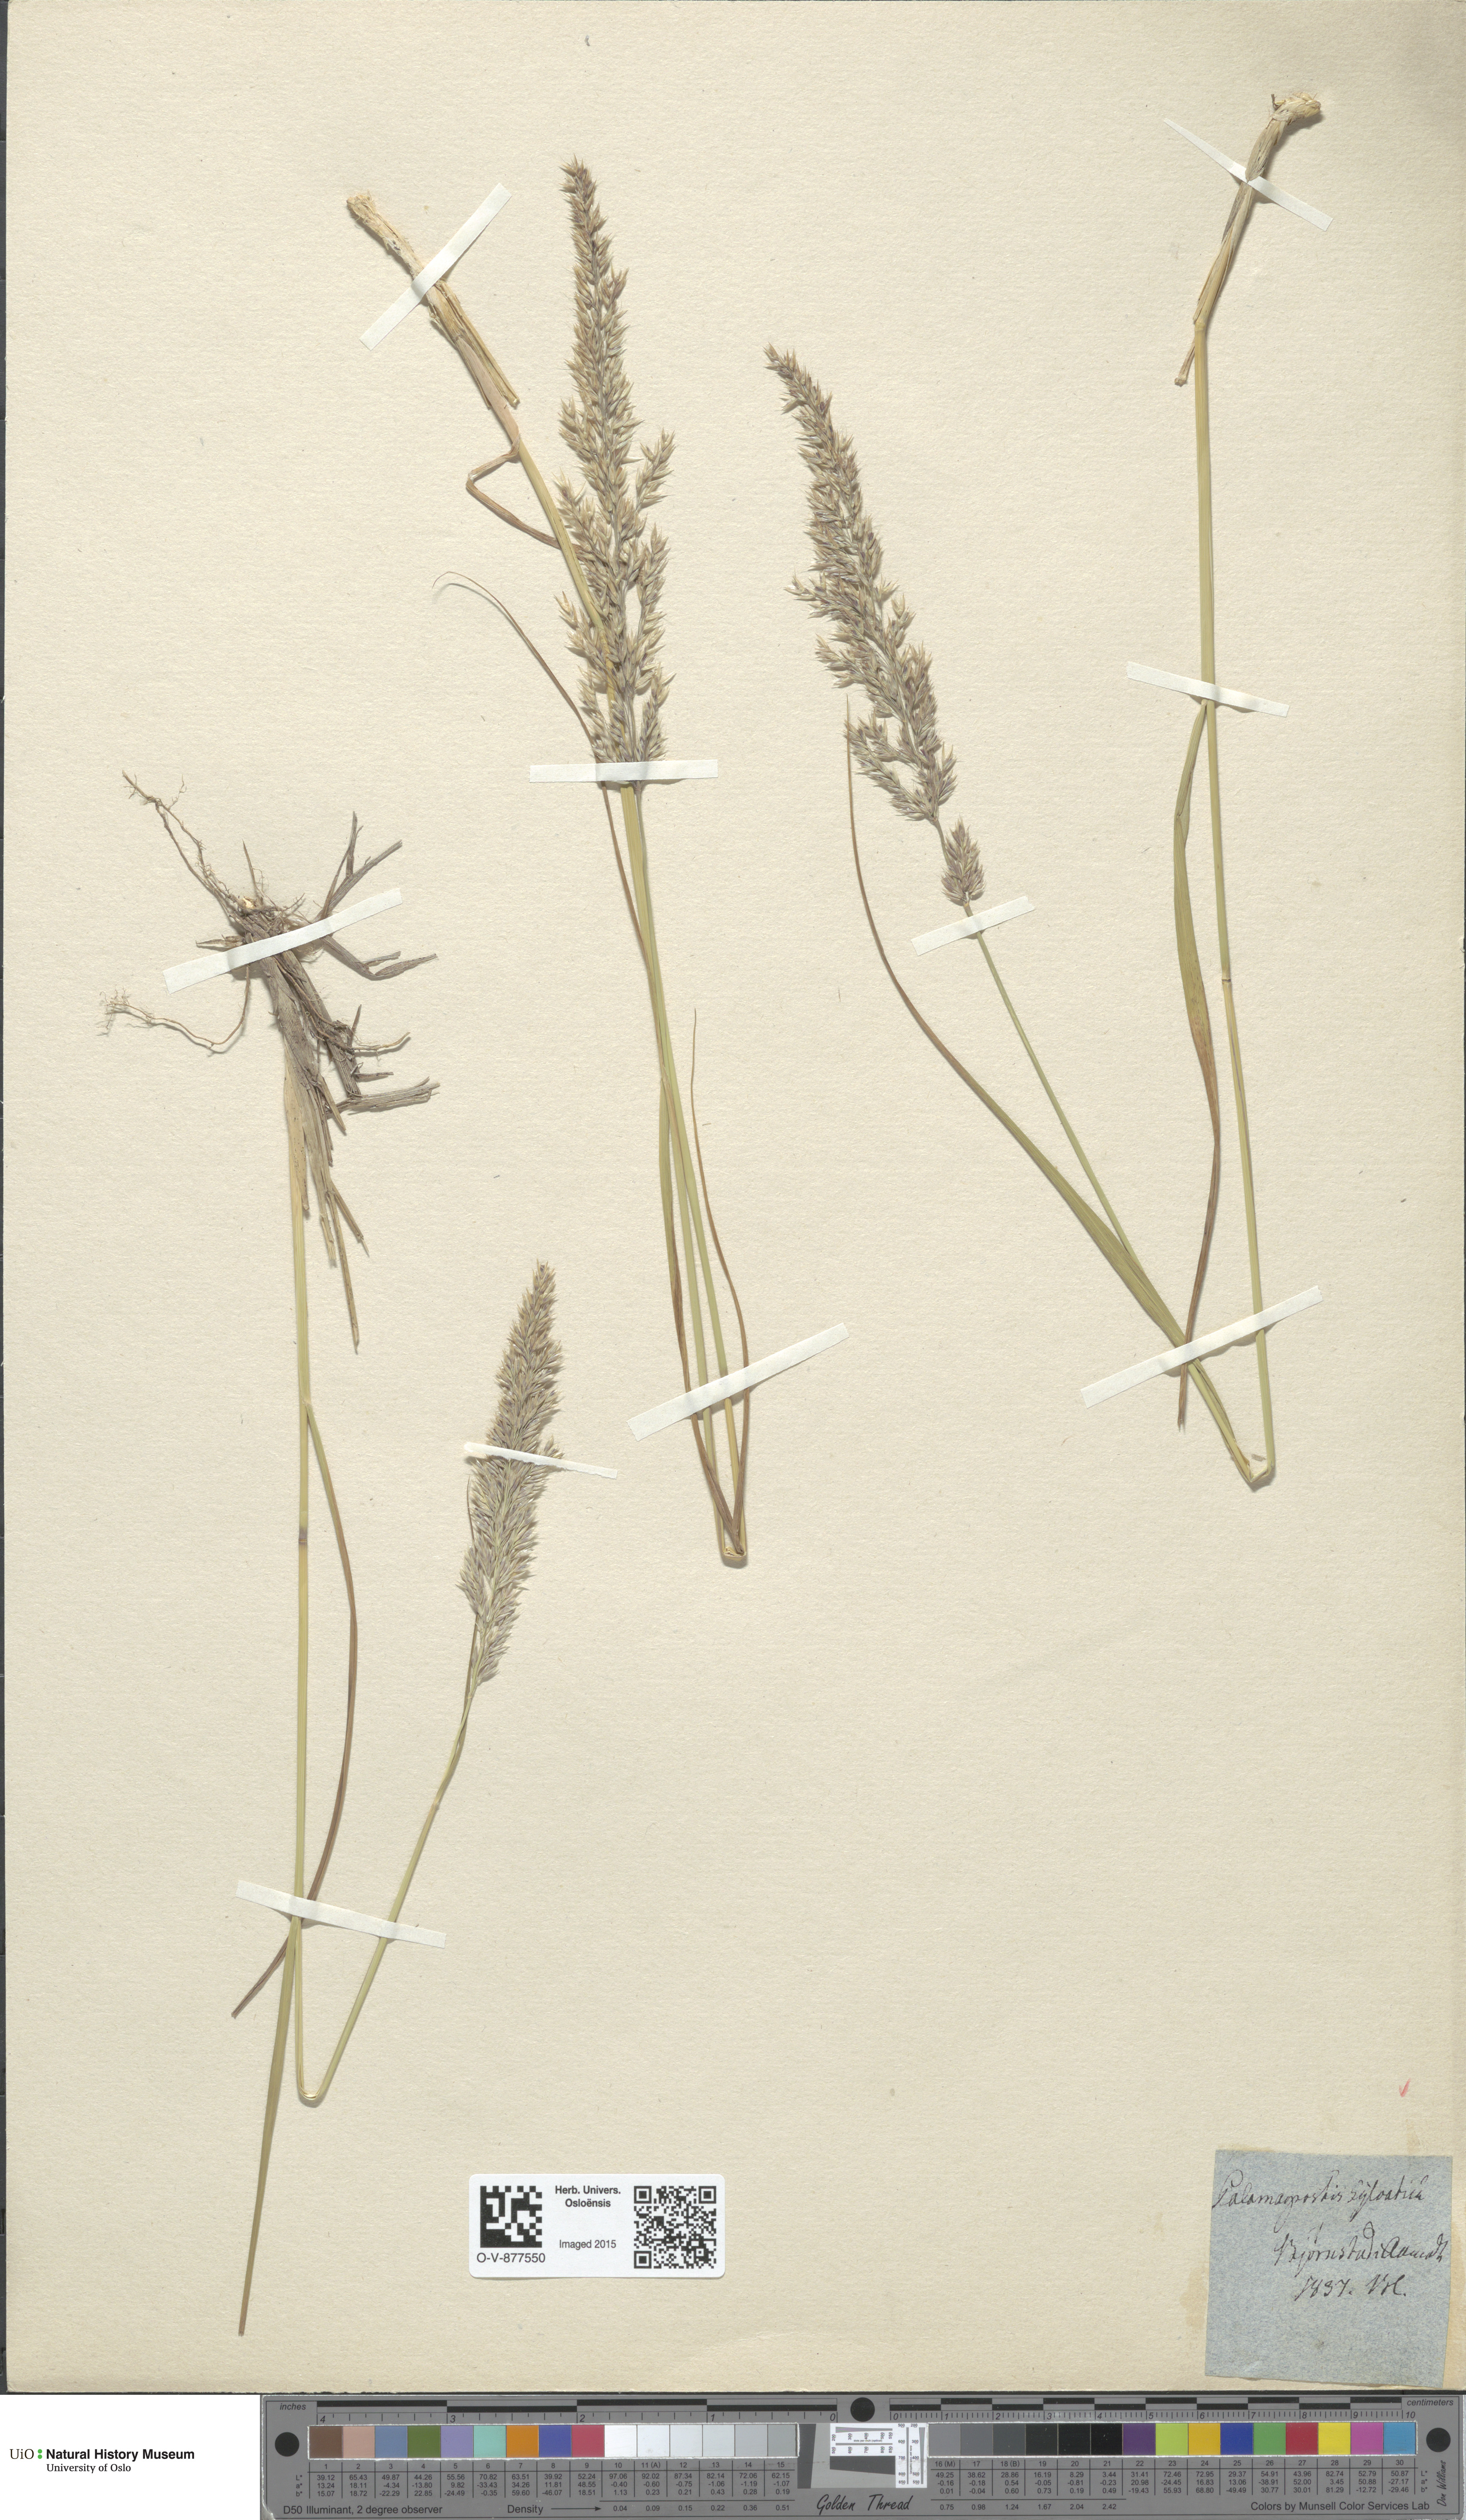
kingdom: Plantae
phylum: Tracheophyta
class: Liliopsida
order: Poales
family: Poaceae
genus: Calamagrostis
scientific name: Calamagrostis arundinacea
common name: Metskastik
